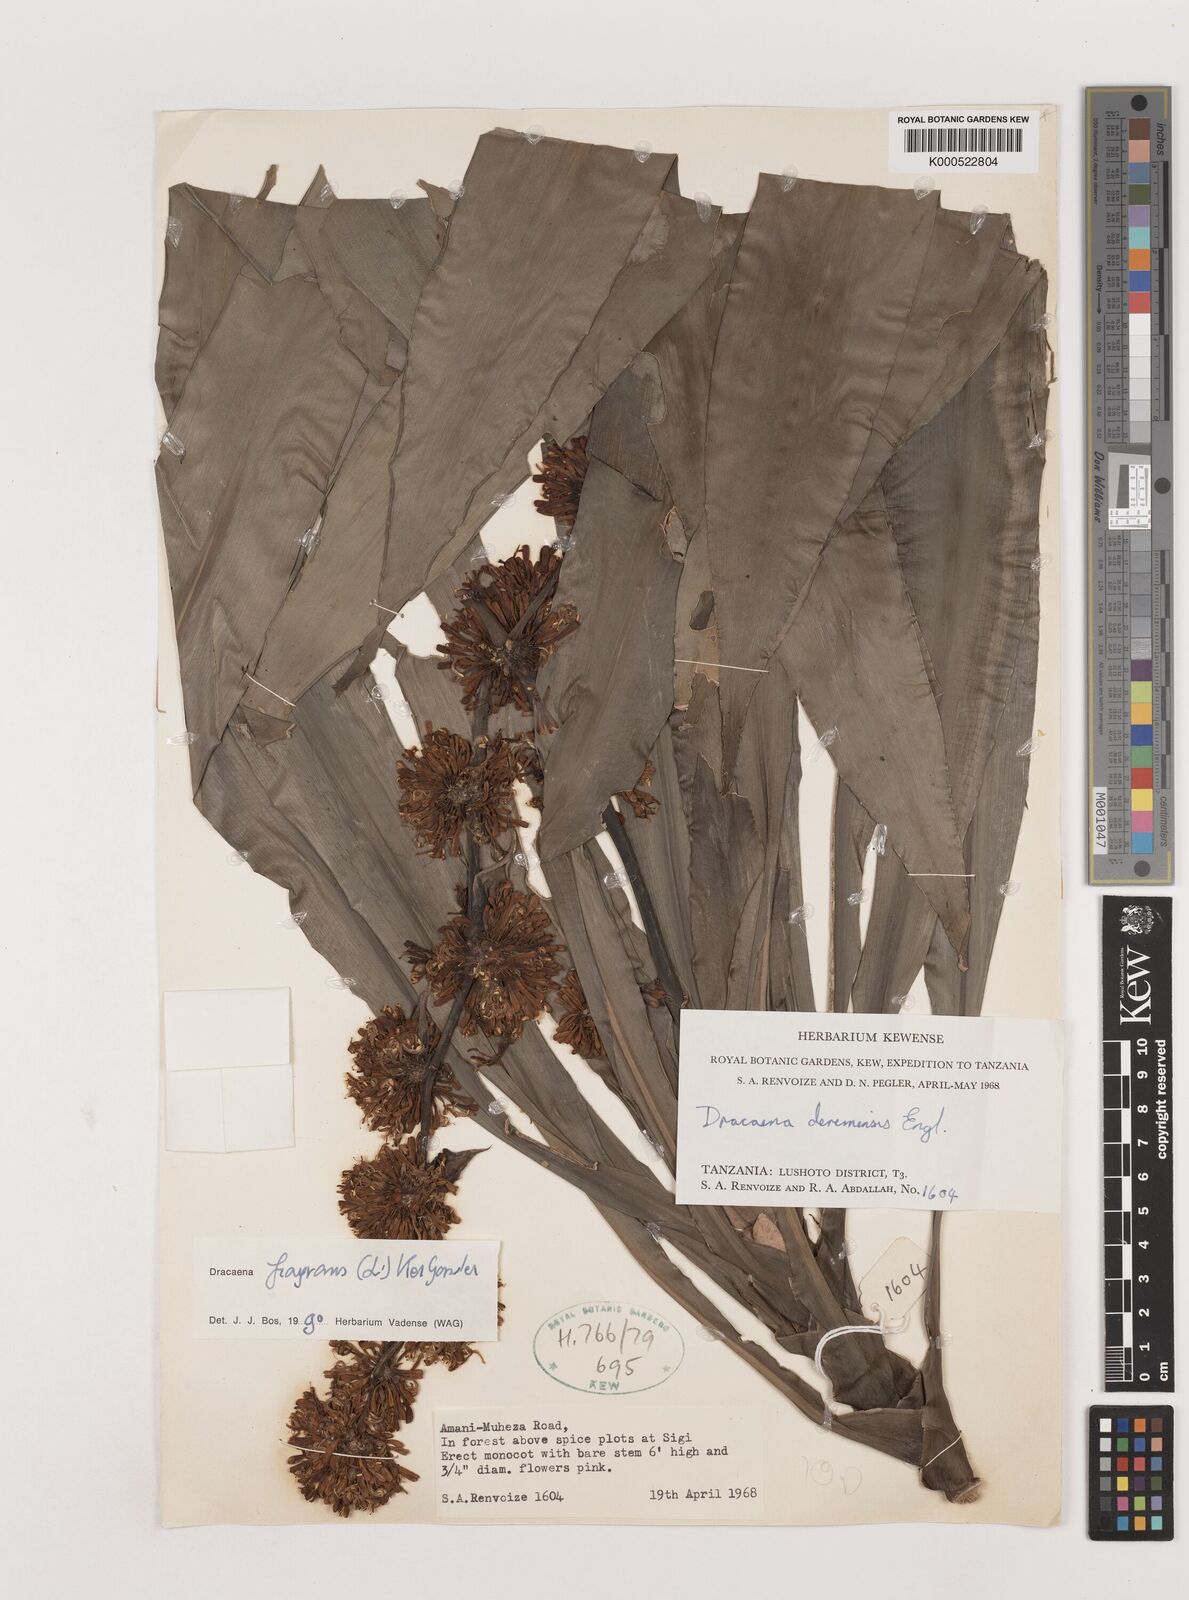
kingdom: Plantae
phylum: Tracheophyta
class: Liliopsida
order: Asparagales
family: Asparagaceae
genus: Dracaena
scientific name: Dracaena fragrans
